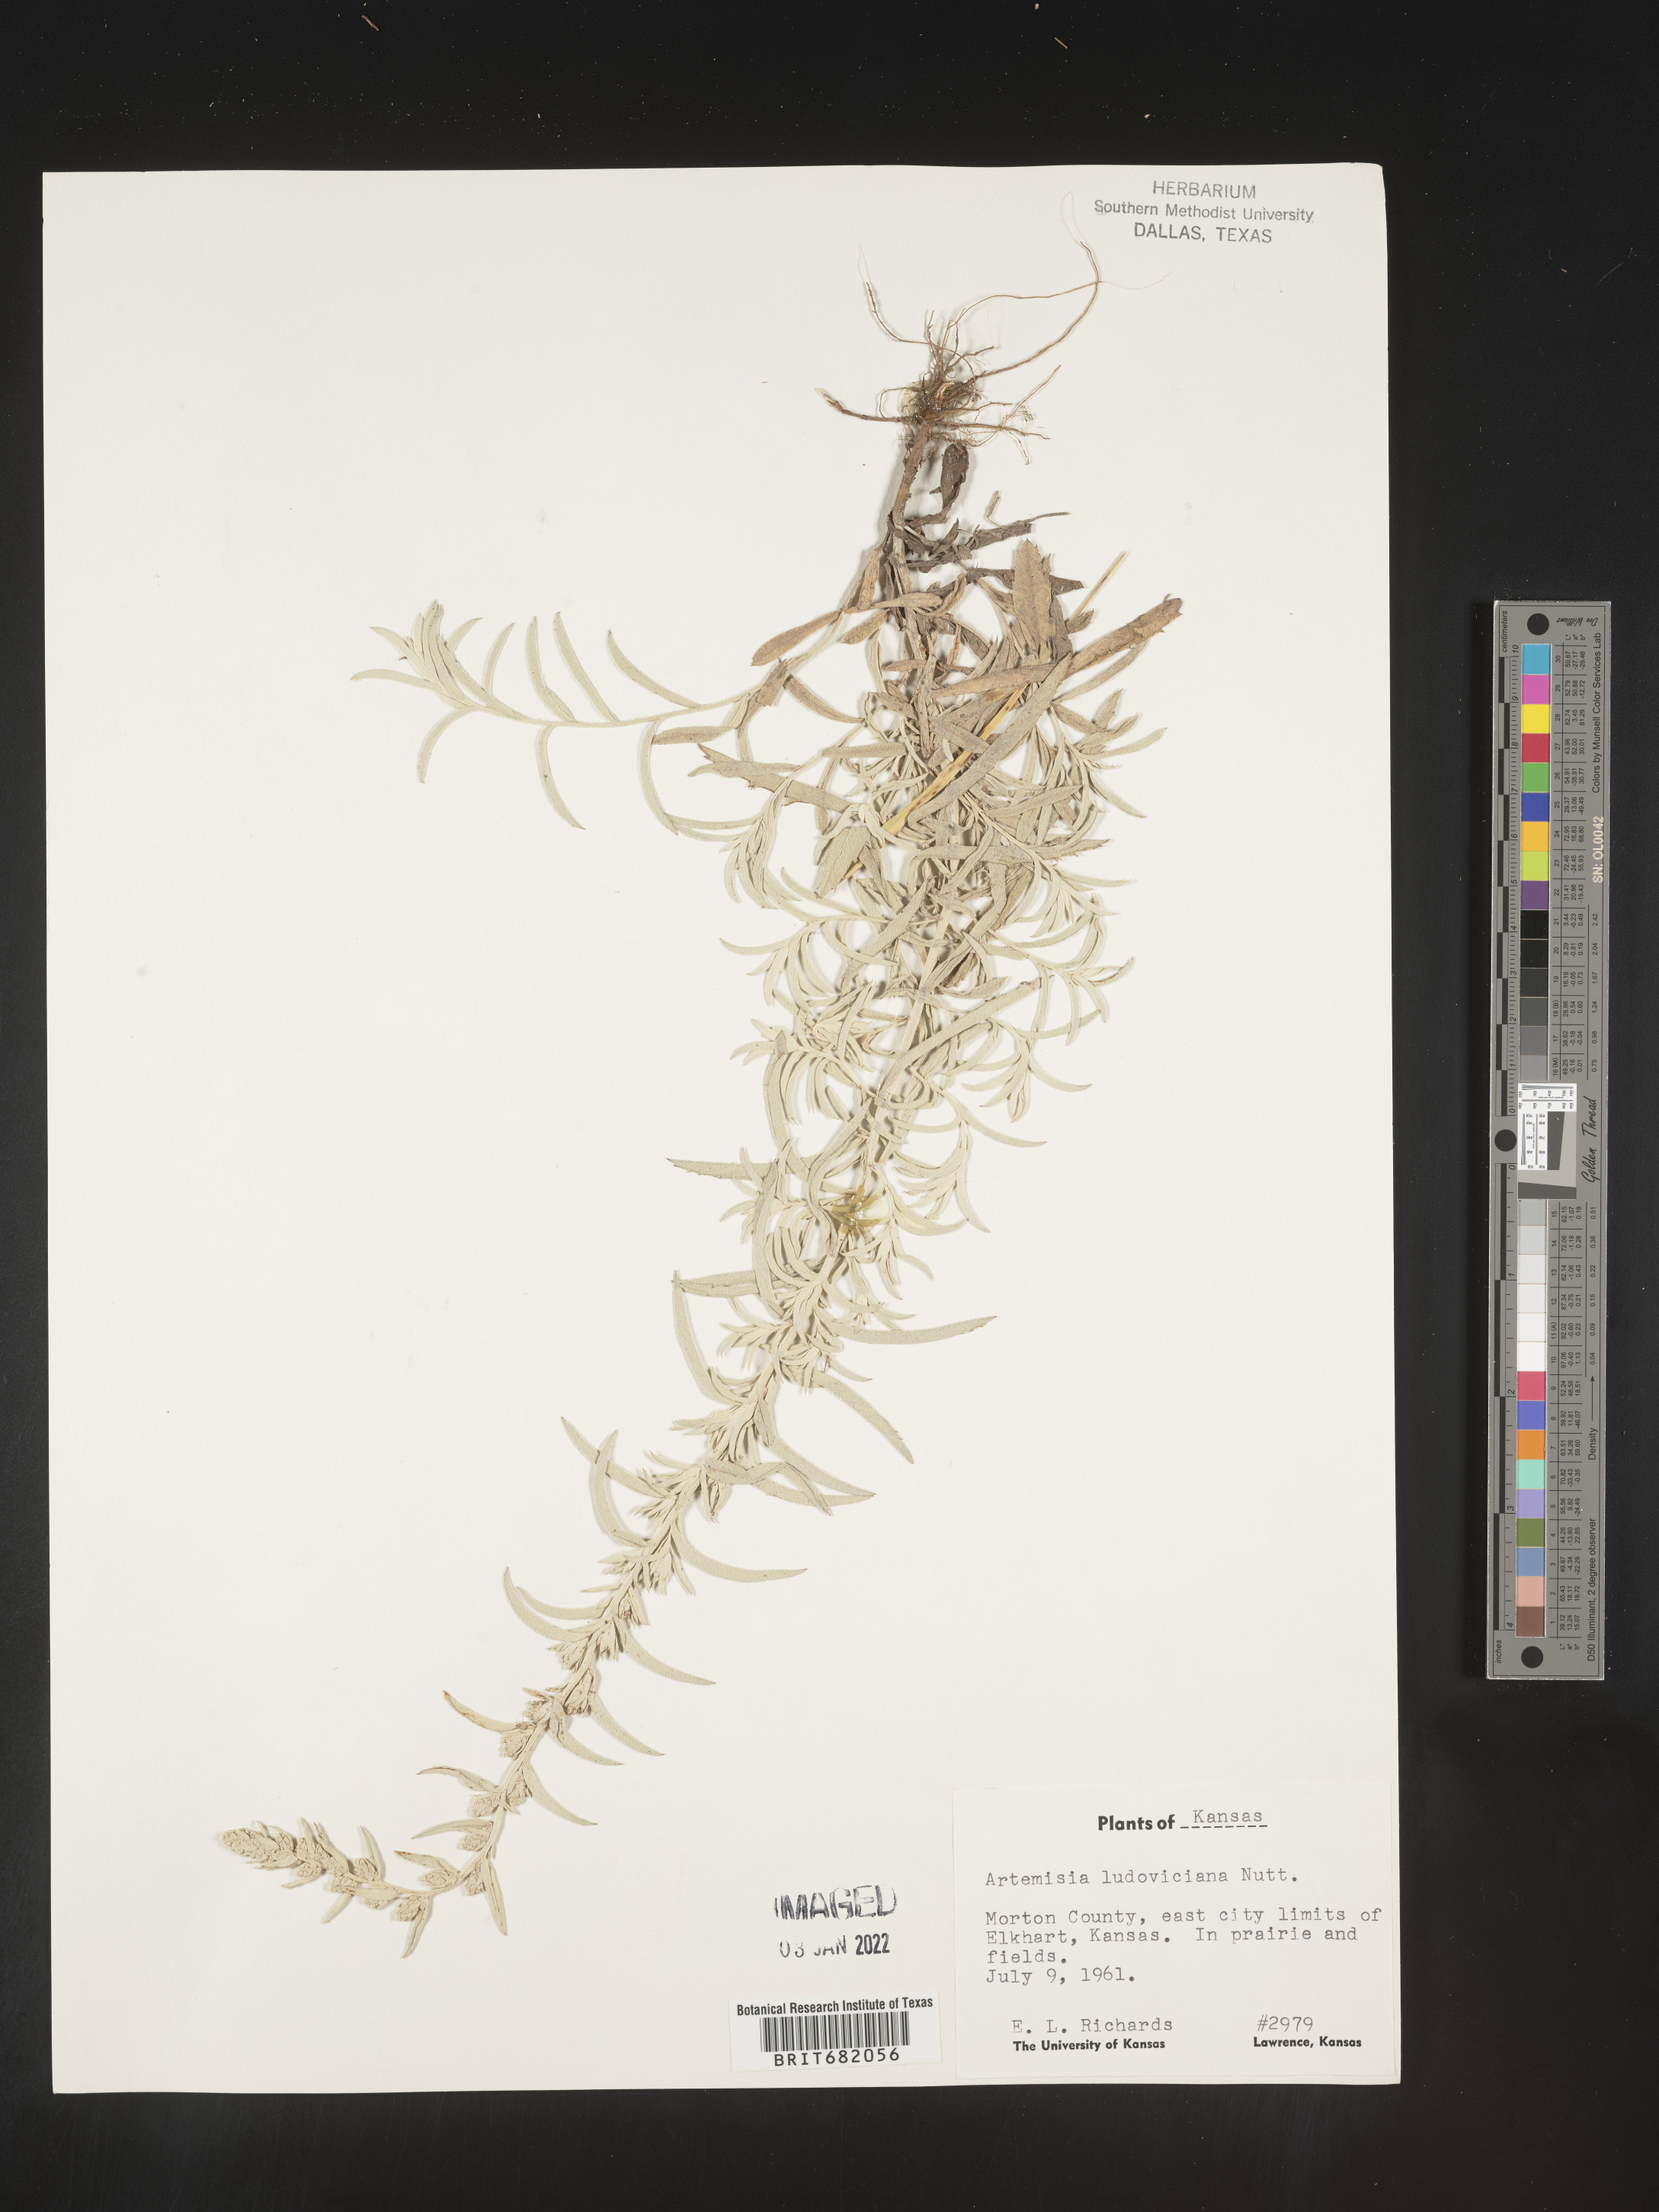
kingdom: Plantae
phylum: Tracheophyta
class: Magnoliopsida
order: Asterales
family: Asteraceae
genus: Artemisia
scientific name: Artemisia ludoviciana
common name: Western mugwort
